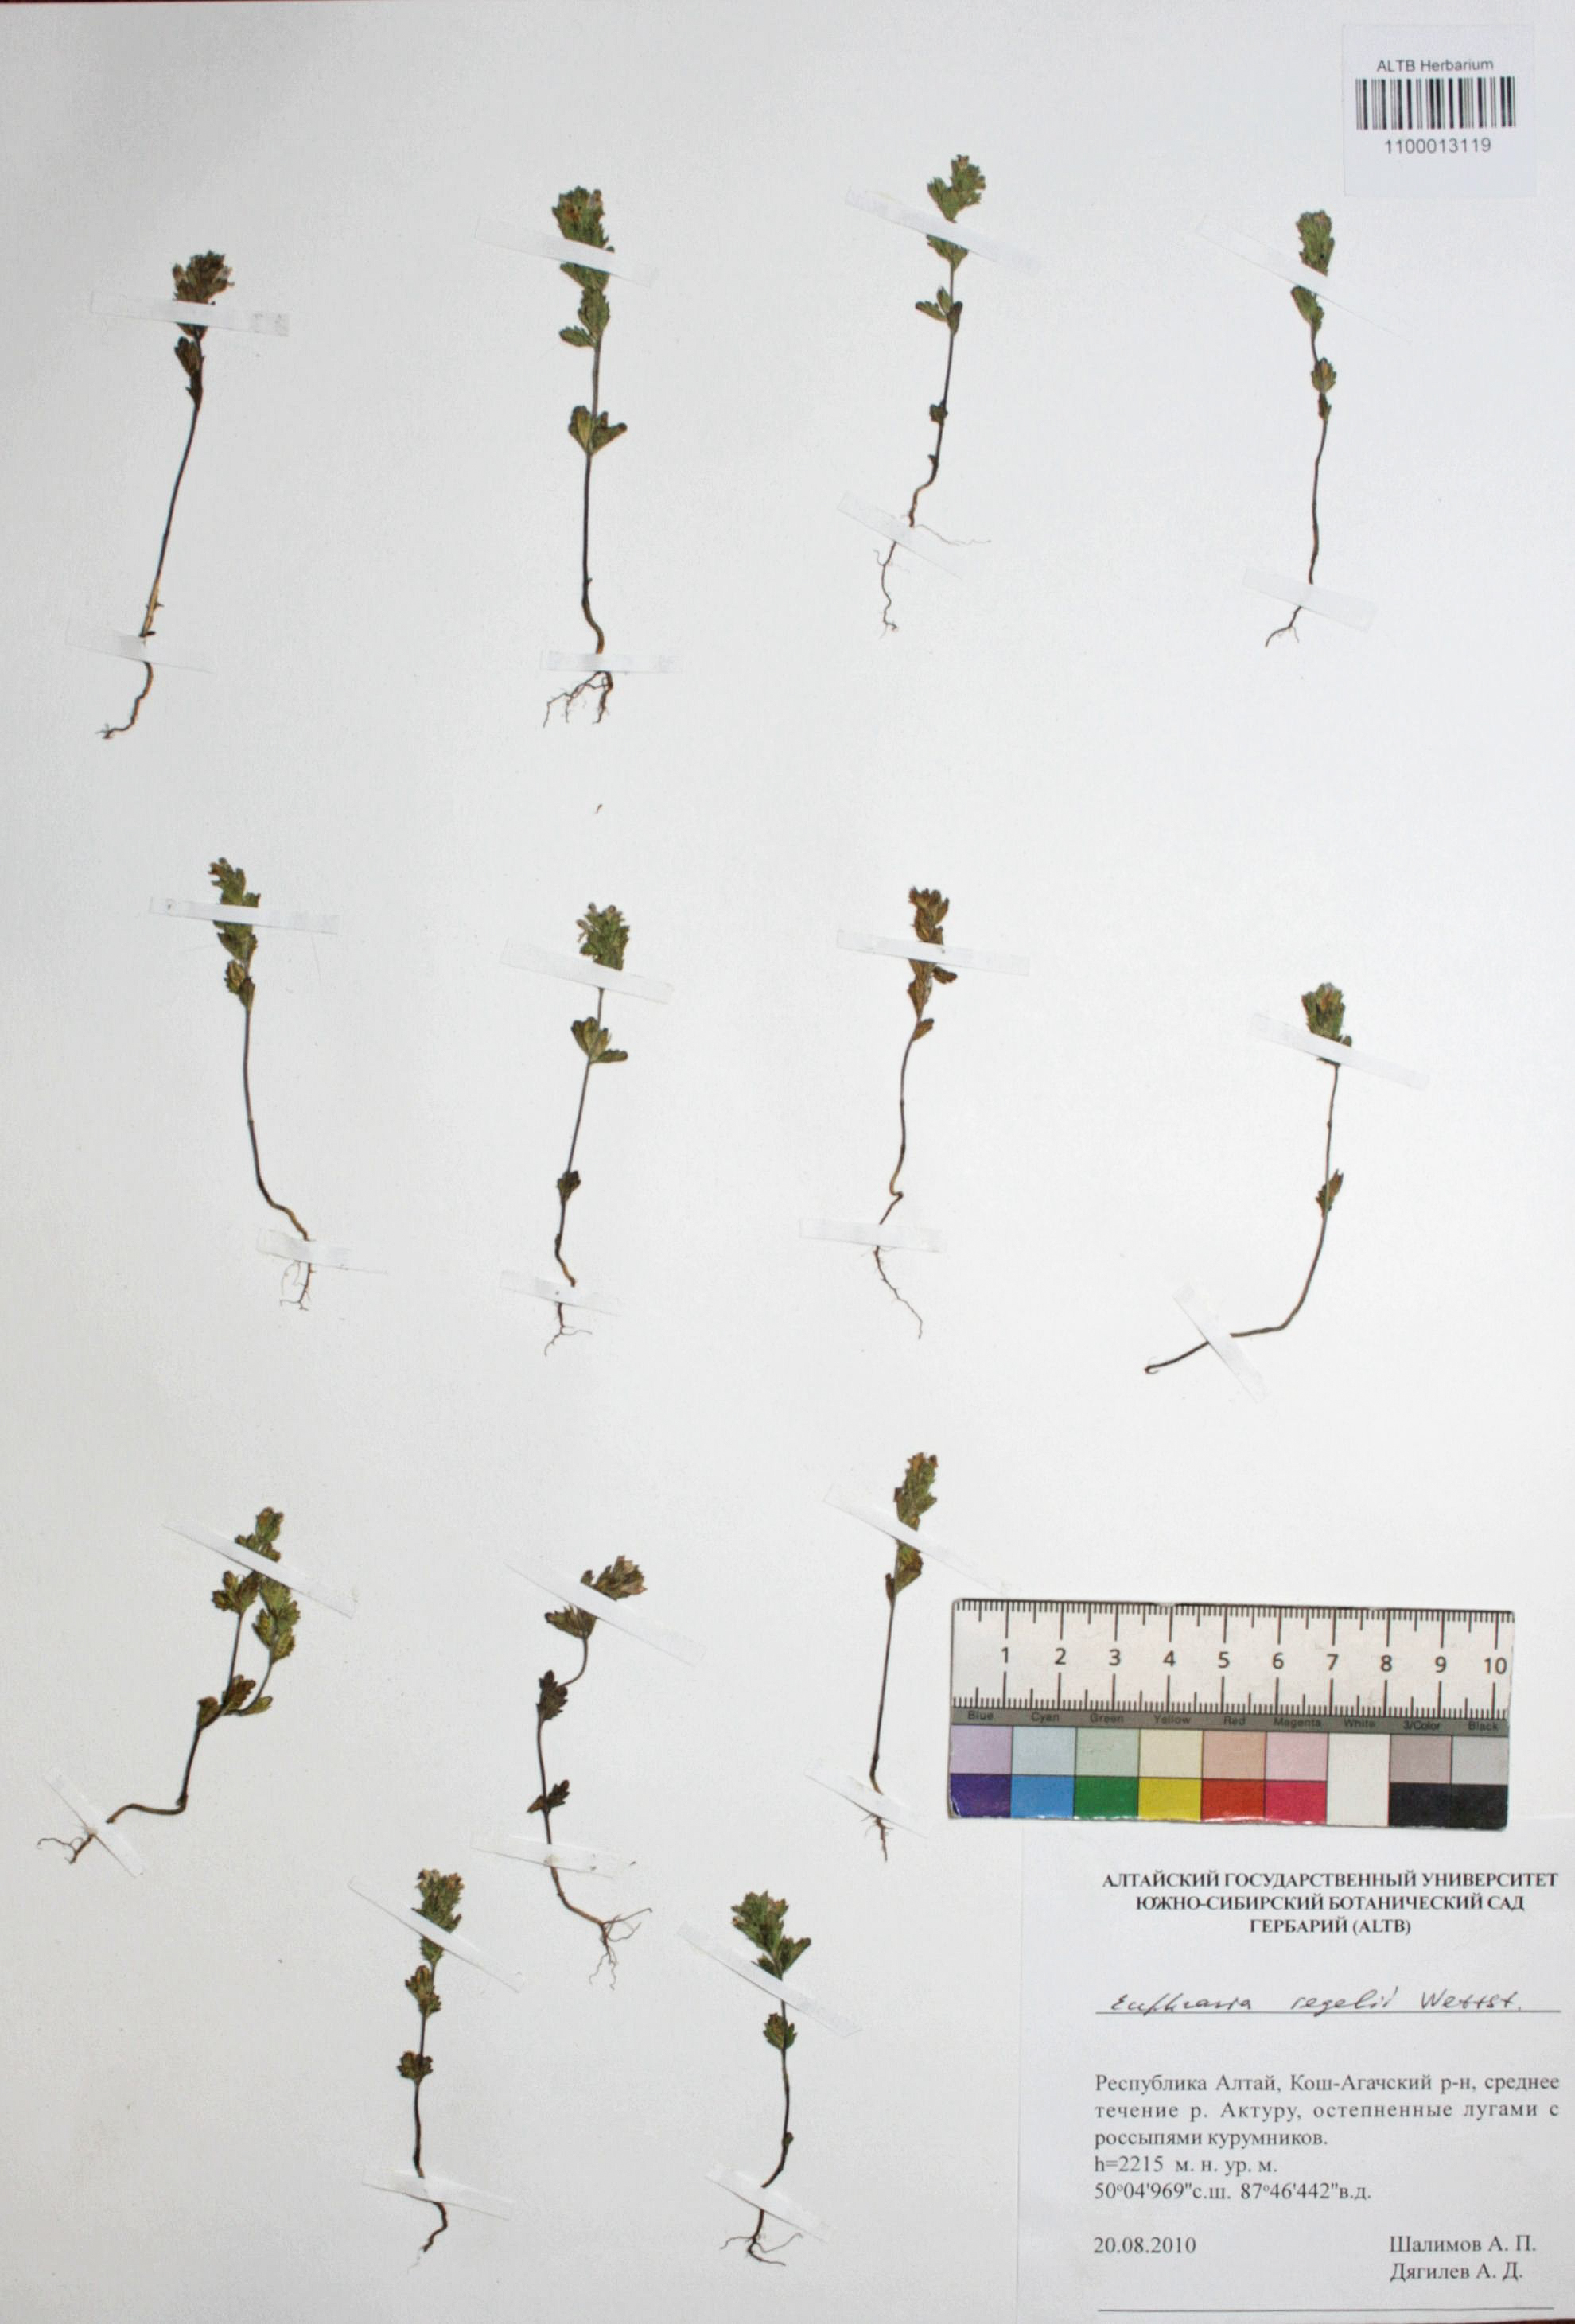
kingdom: Plantae
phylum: Tracheophyta
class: Magnoliopsida
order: Lamiales
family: Orobanchaceae
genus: Euphrasia
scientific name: Euphrasia regelii
